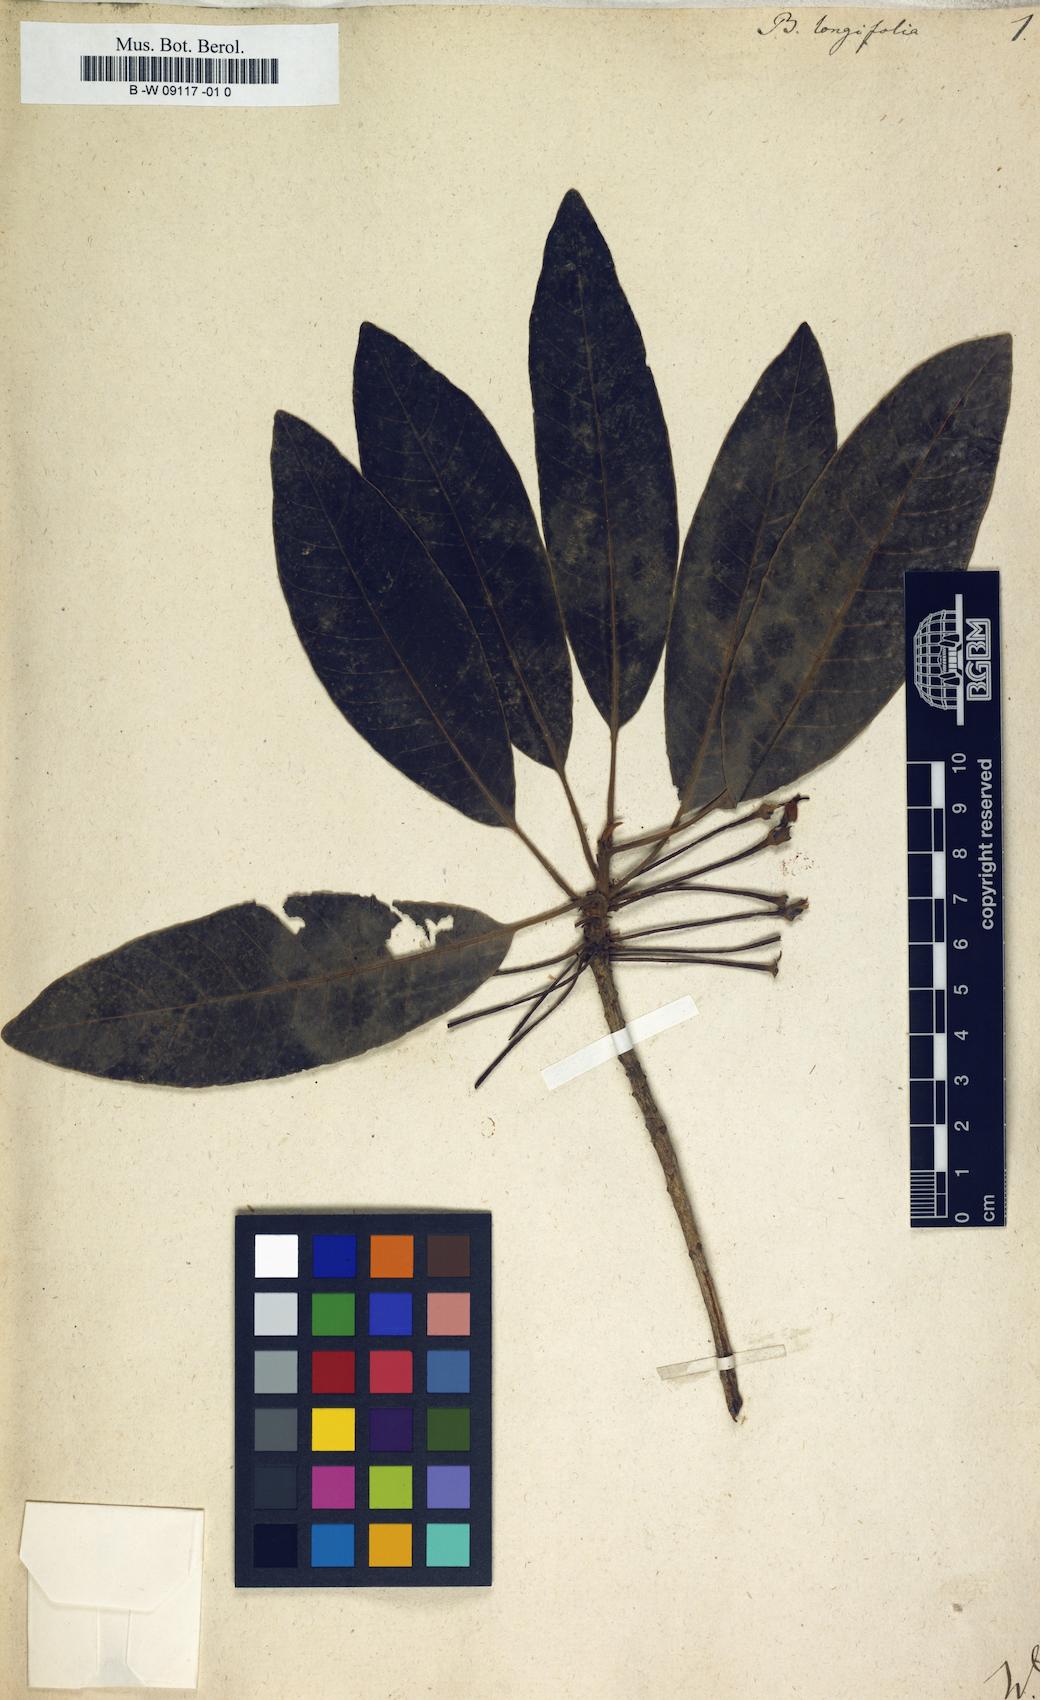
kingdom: Plantae
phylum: Tracheophyta
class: Magnoliopsida
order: Caryophyllales
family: Amaranthaceae
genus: Sclerolaena
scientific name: Sclerolaena fimbriolata
